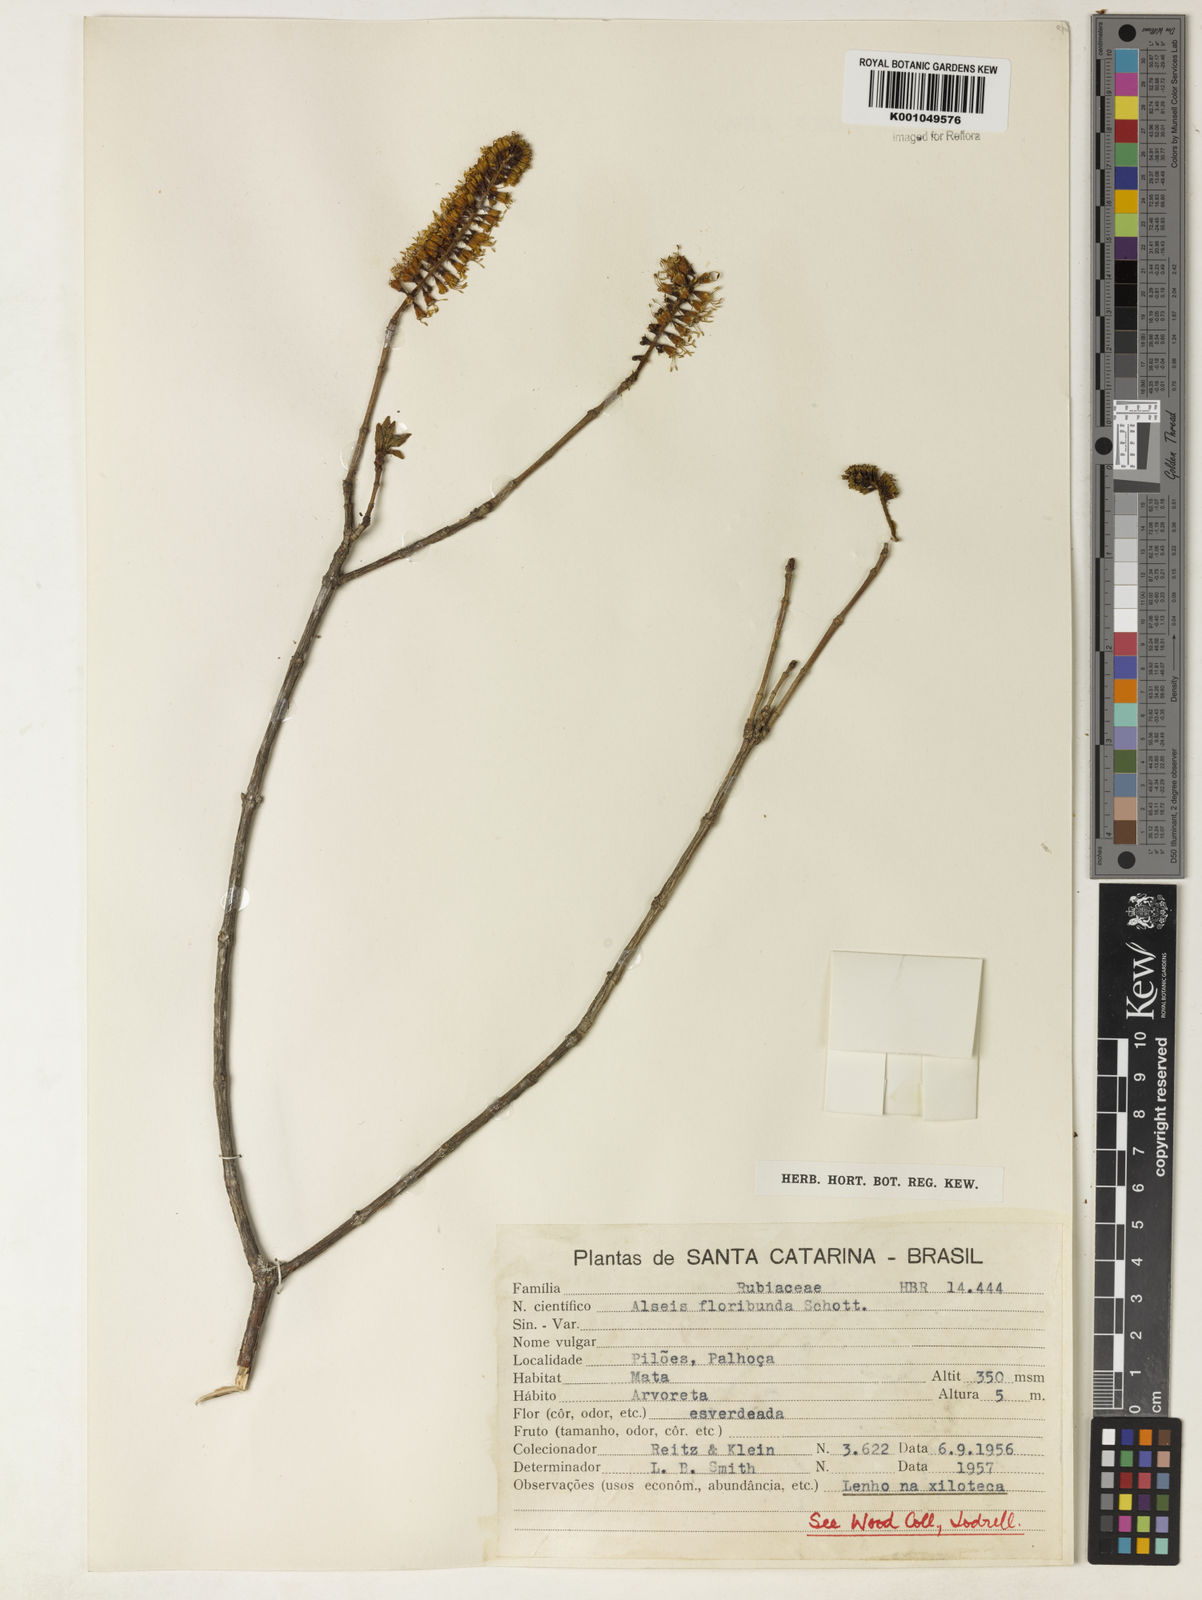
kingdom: Plantae
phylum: Tracheophyta
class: Magnoliopsida
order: Gentianales
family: Rubiaceae
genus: Alseis
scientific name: Alseis floribunda
